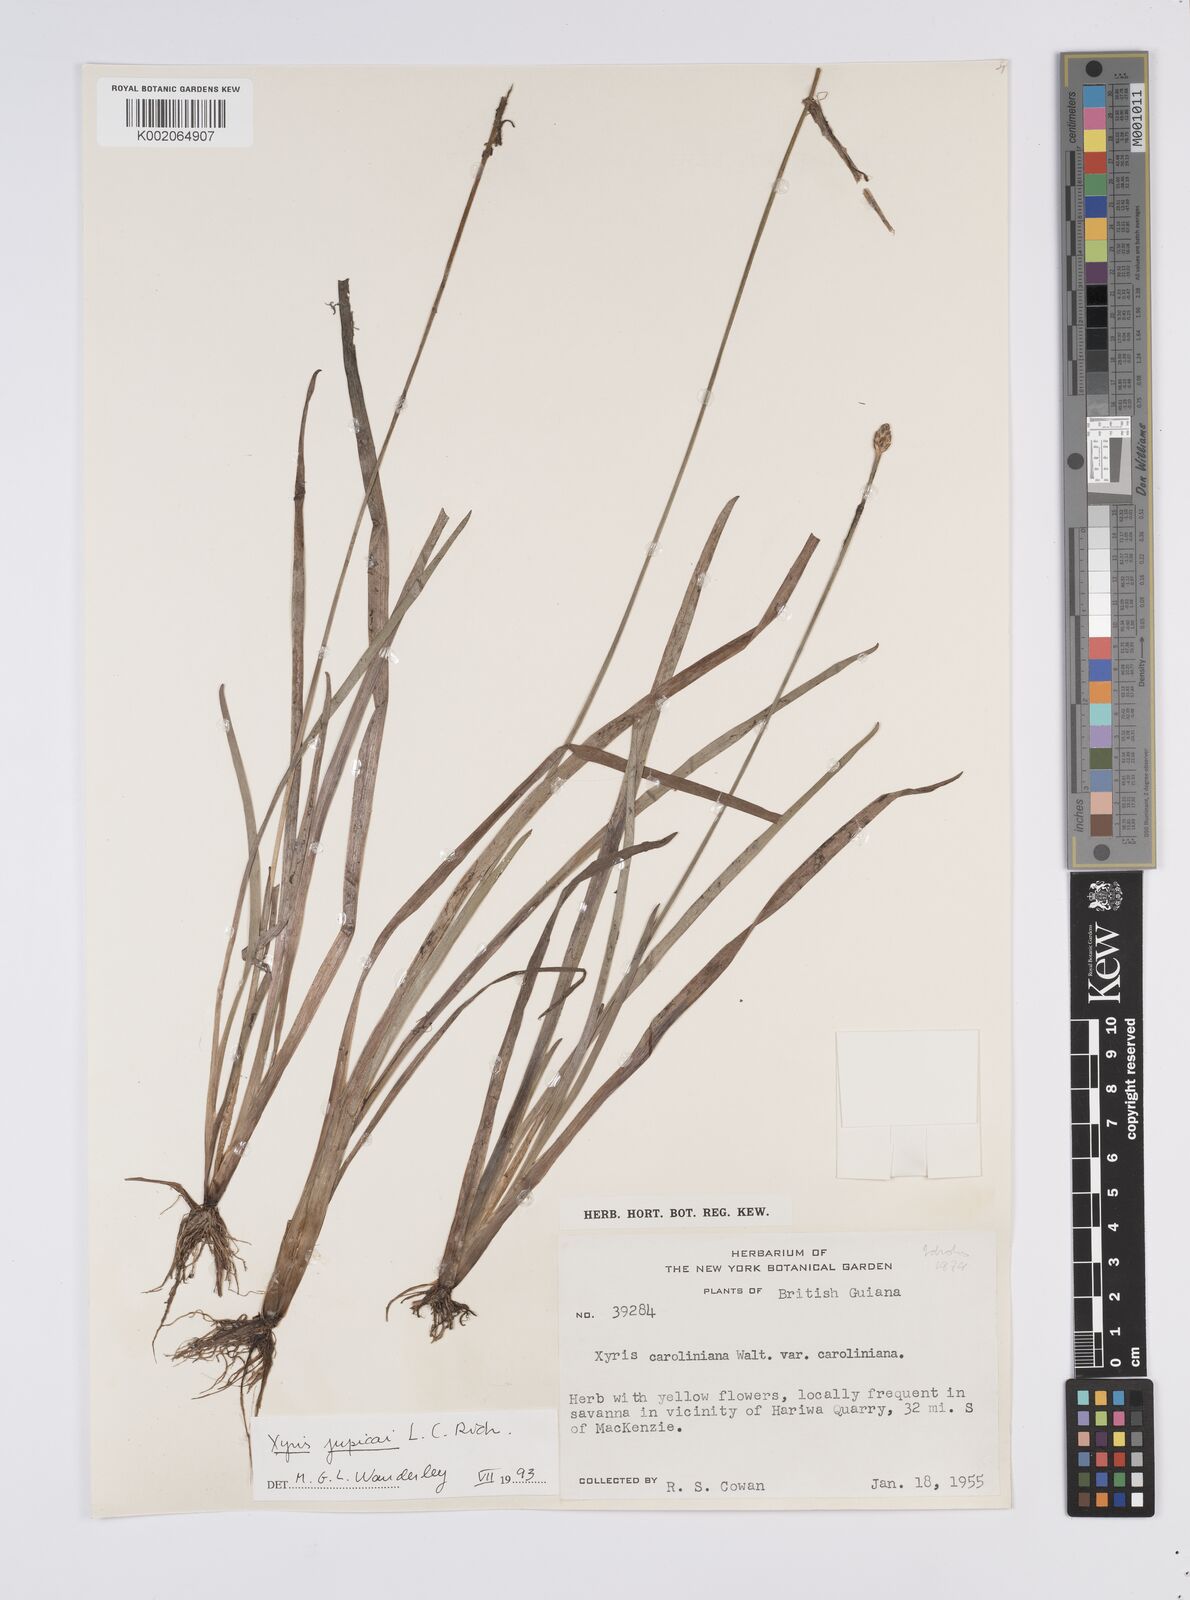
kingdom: Plantae
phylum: Tracheophyta
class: Liliopsida
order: Poales
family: Xyridaceae
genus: Xyris
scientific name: Xyris jupicai
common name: Richard's yelloweyed grass
